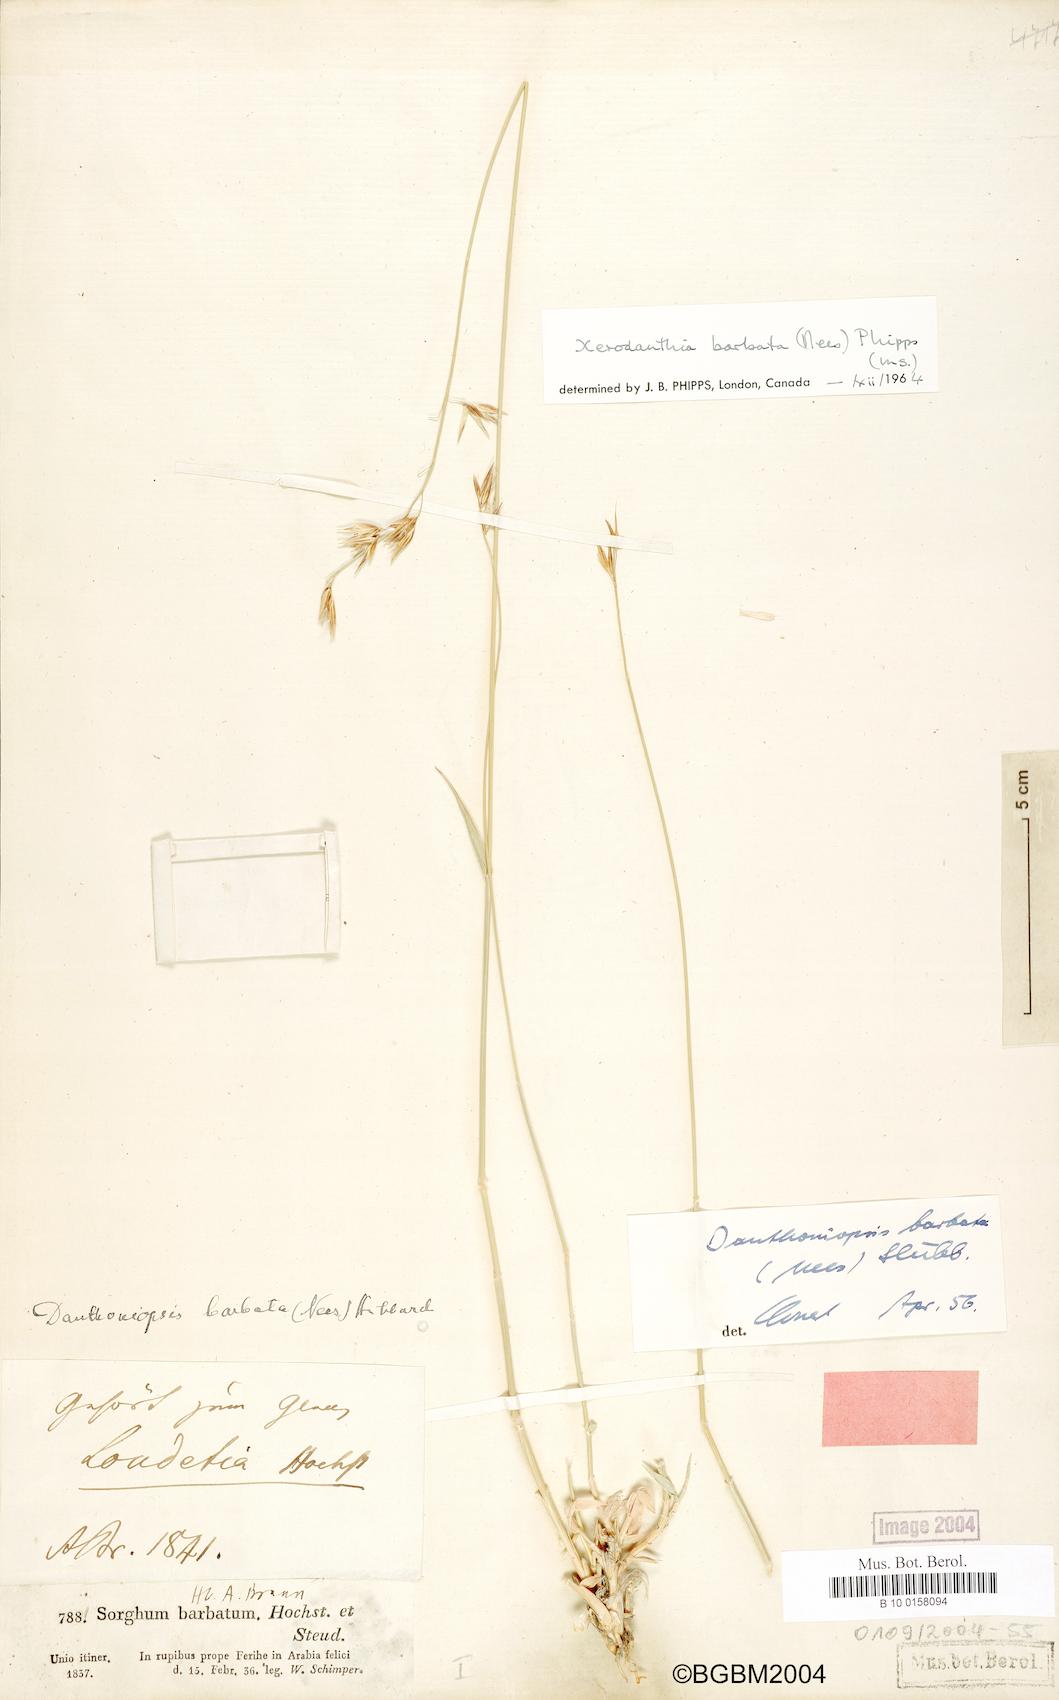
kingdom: Plantae
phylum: Tracheophyta
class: Liliopsida
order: Poales
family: Poaceae
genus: Danthoniopsis
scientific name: Danthoniopsis barbata
